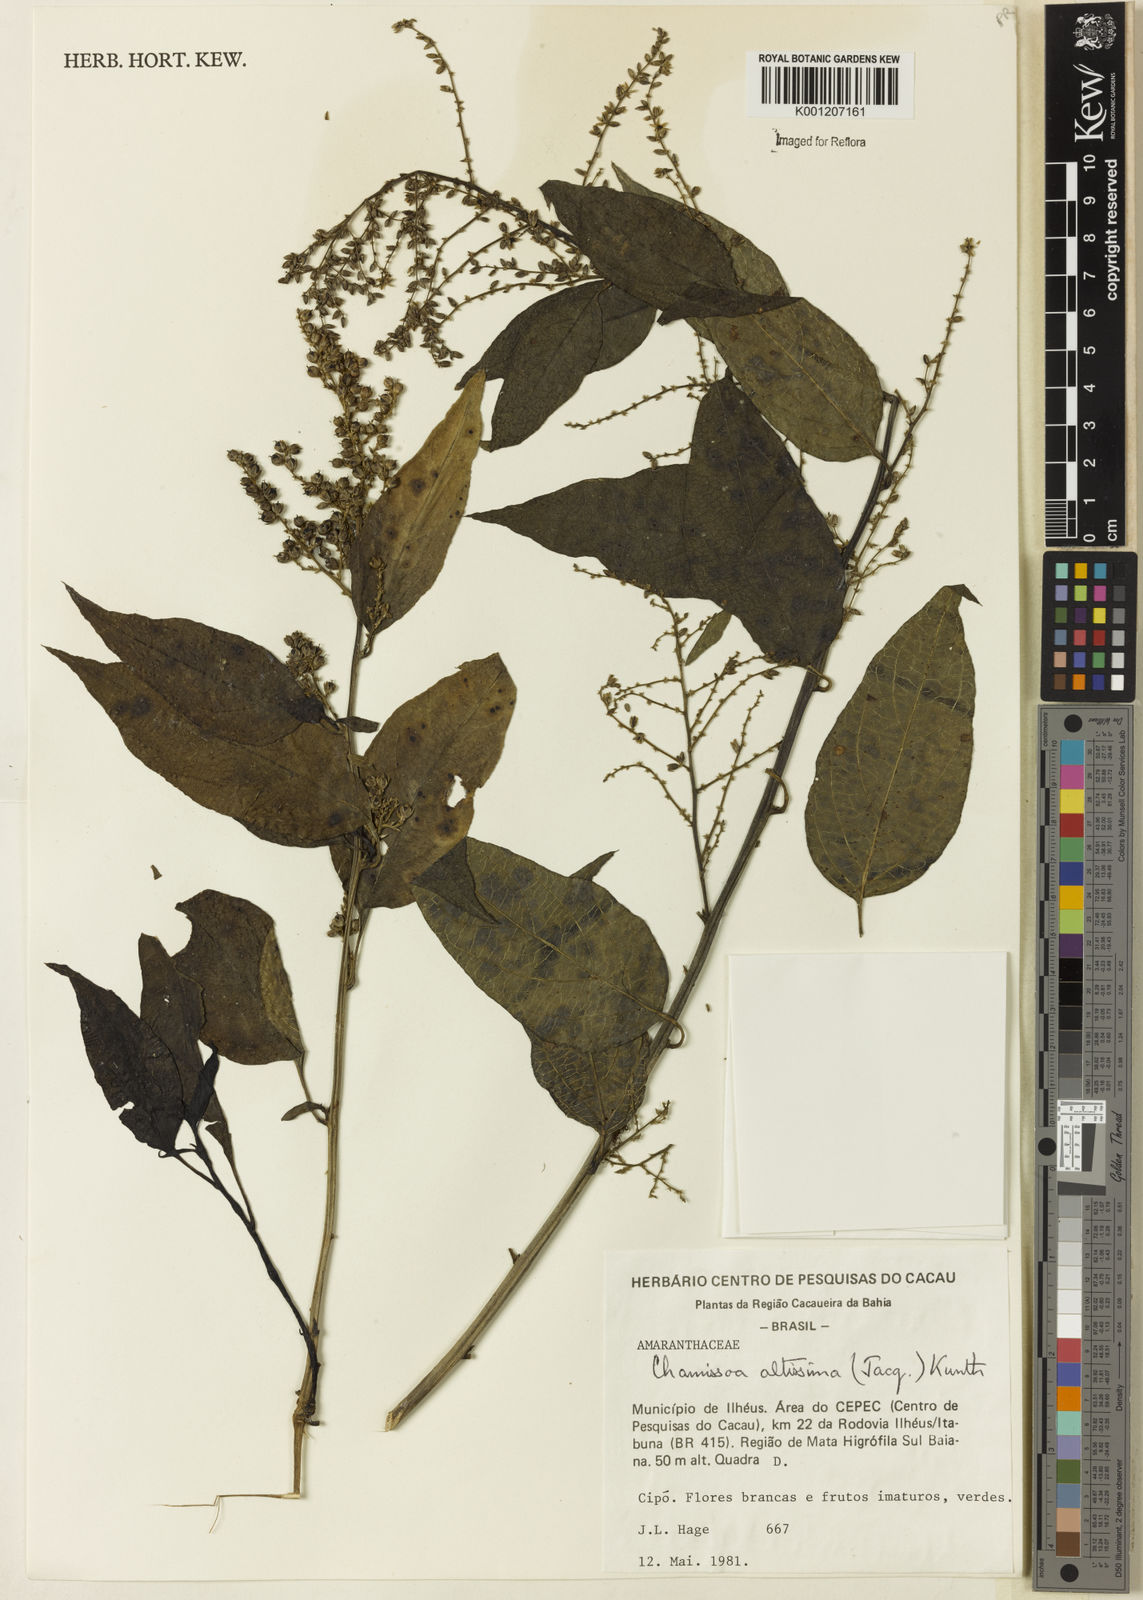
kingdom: Plantae
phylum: Tracheophyta
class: Magnoliopsida
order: Caryophyllales
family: Amaranthaceae
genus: Chamissoa
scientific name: Chamissoa altissima
